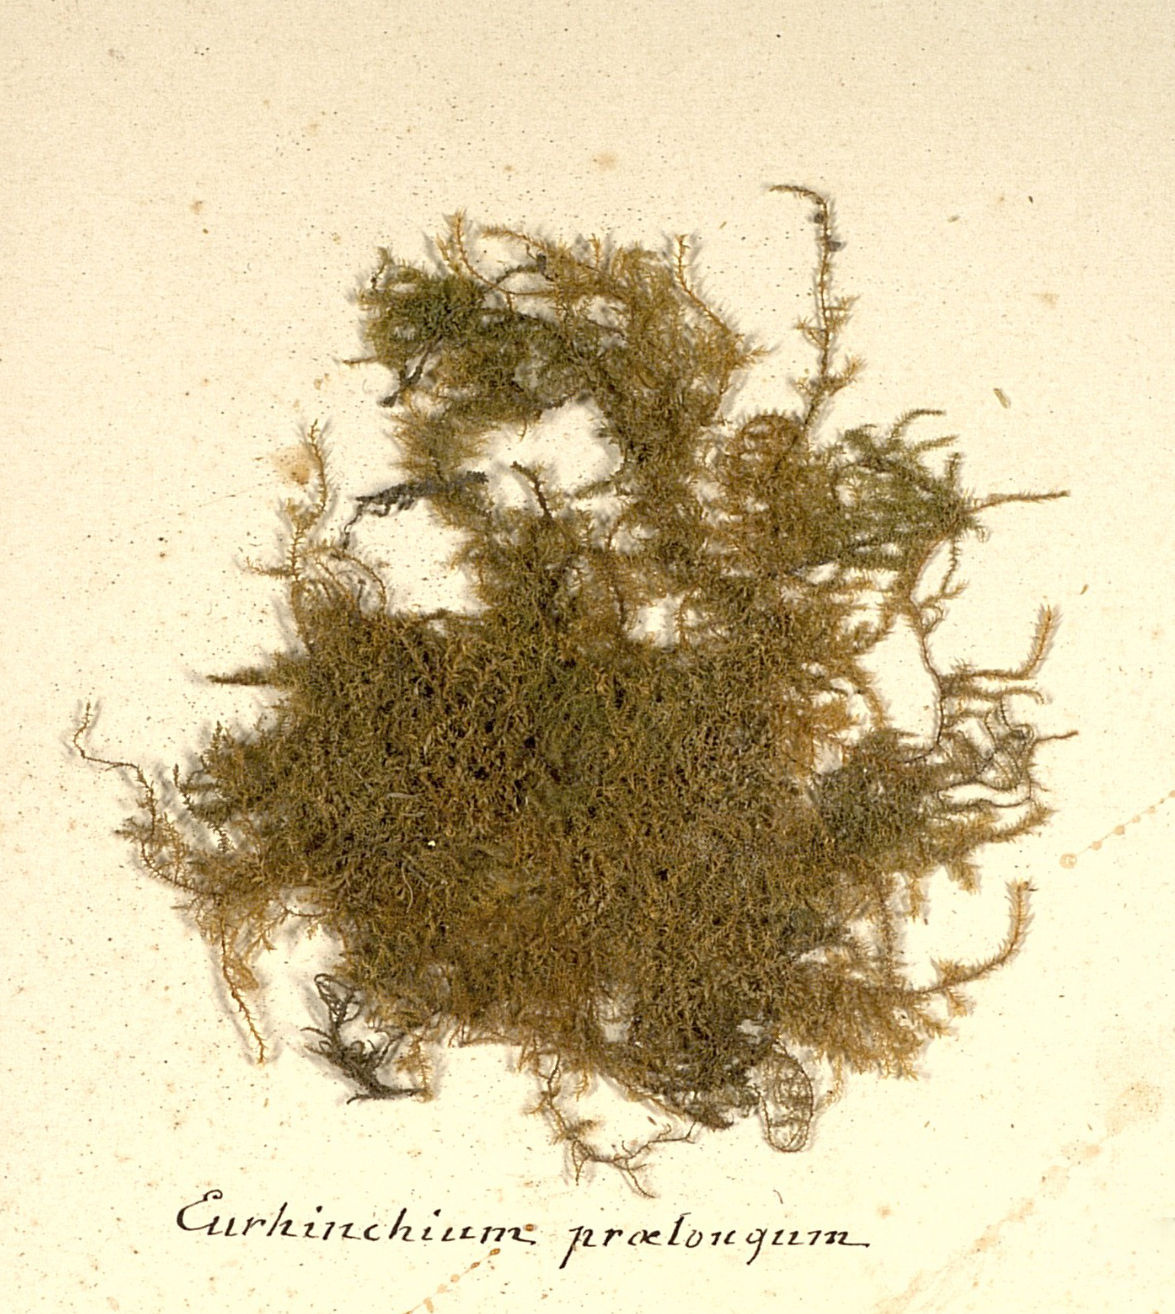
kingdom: Plantae
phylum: Bryophyta
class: Bryopsida
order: Hypnales
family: Brachytheciaceae
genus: Oxyrrhynchium
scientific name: Oxyrrhynchium hians
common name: Spreading beaked moss
